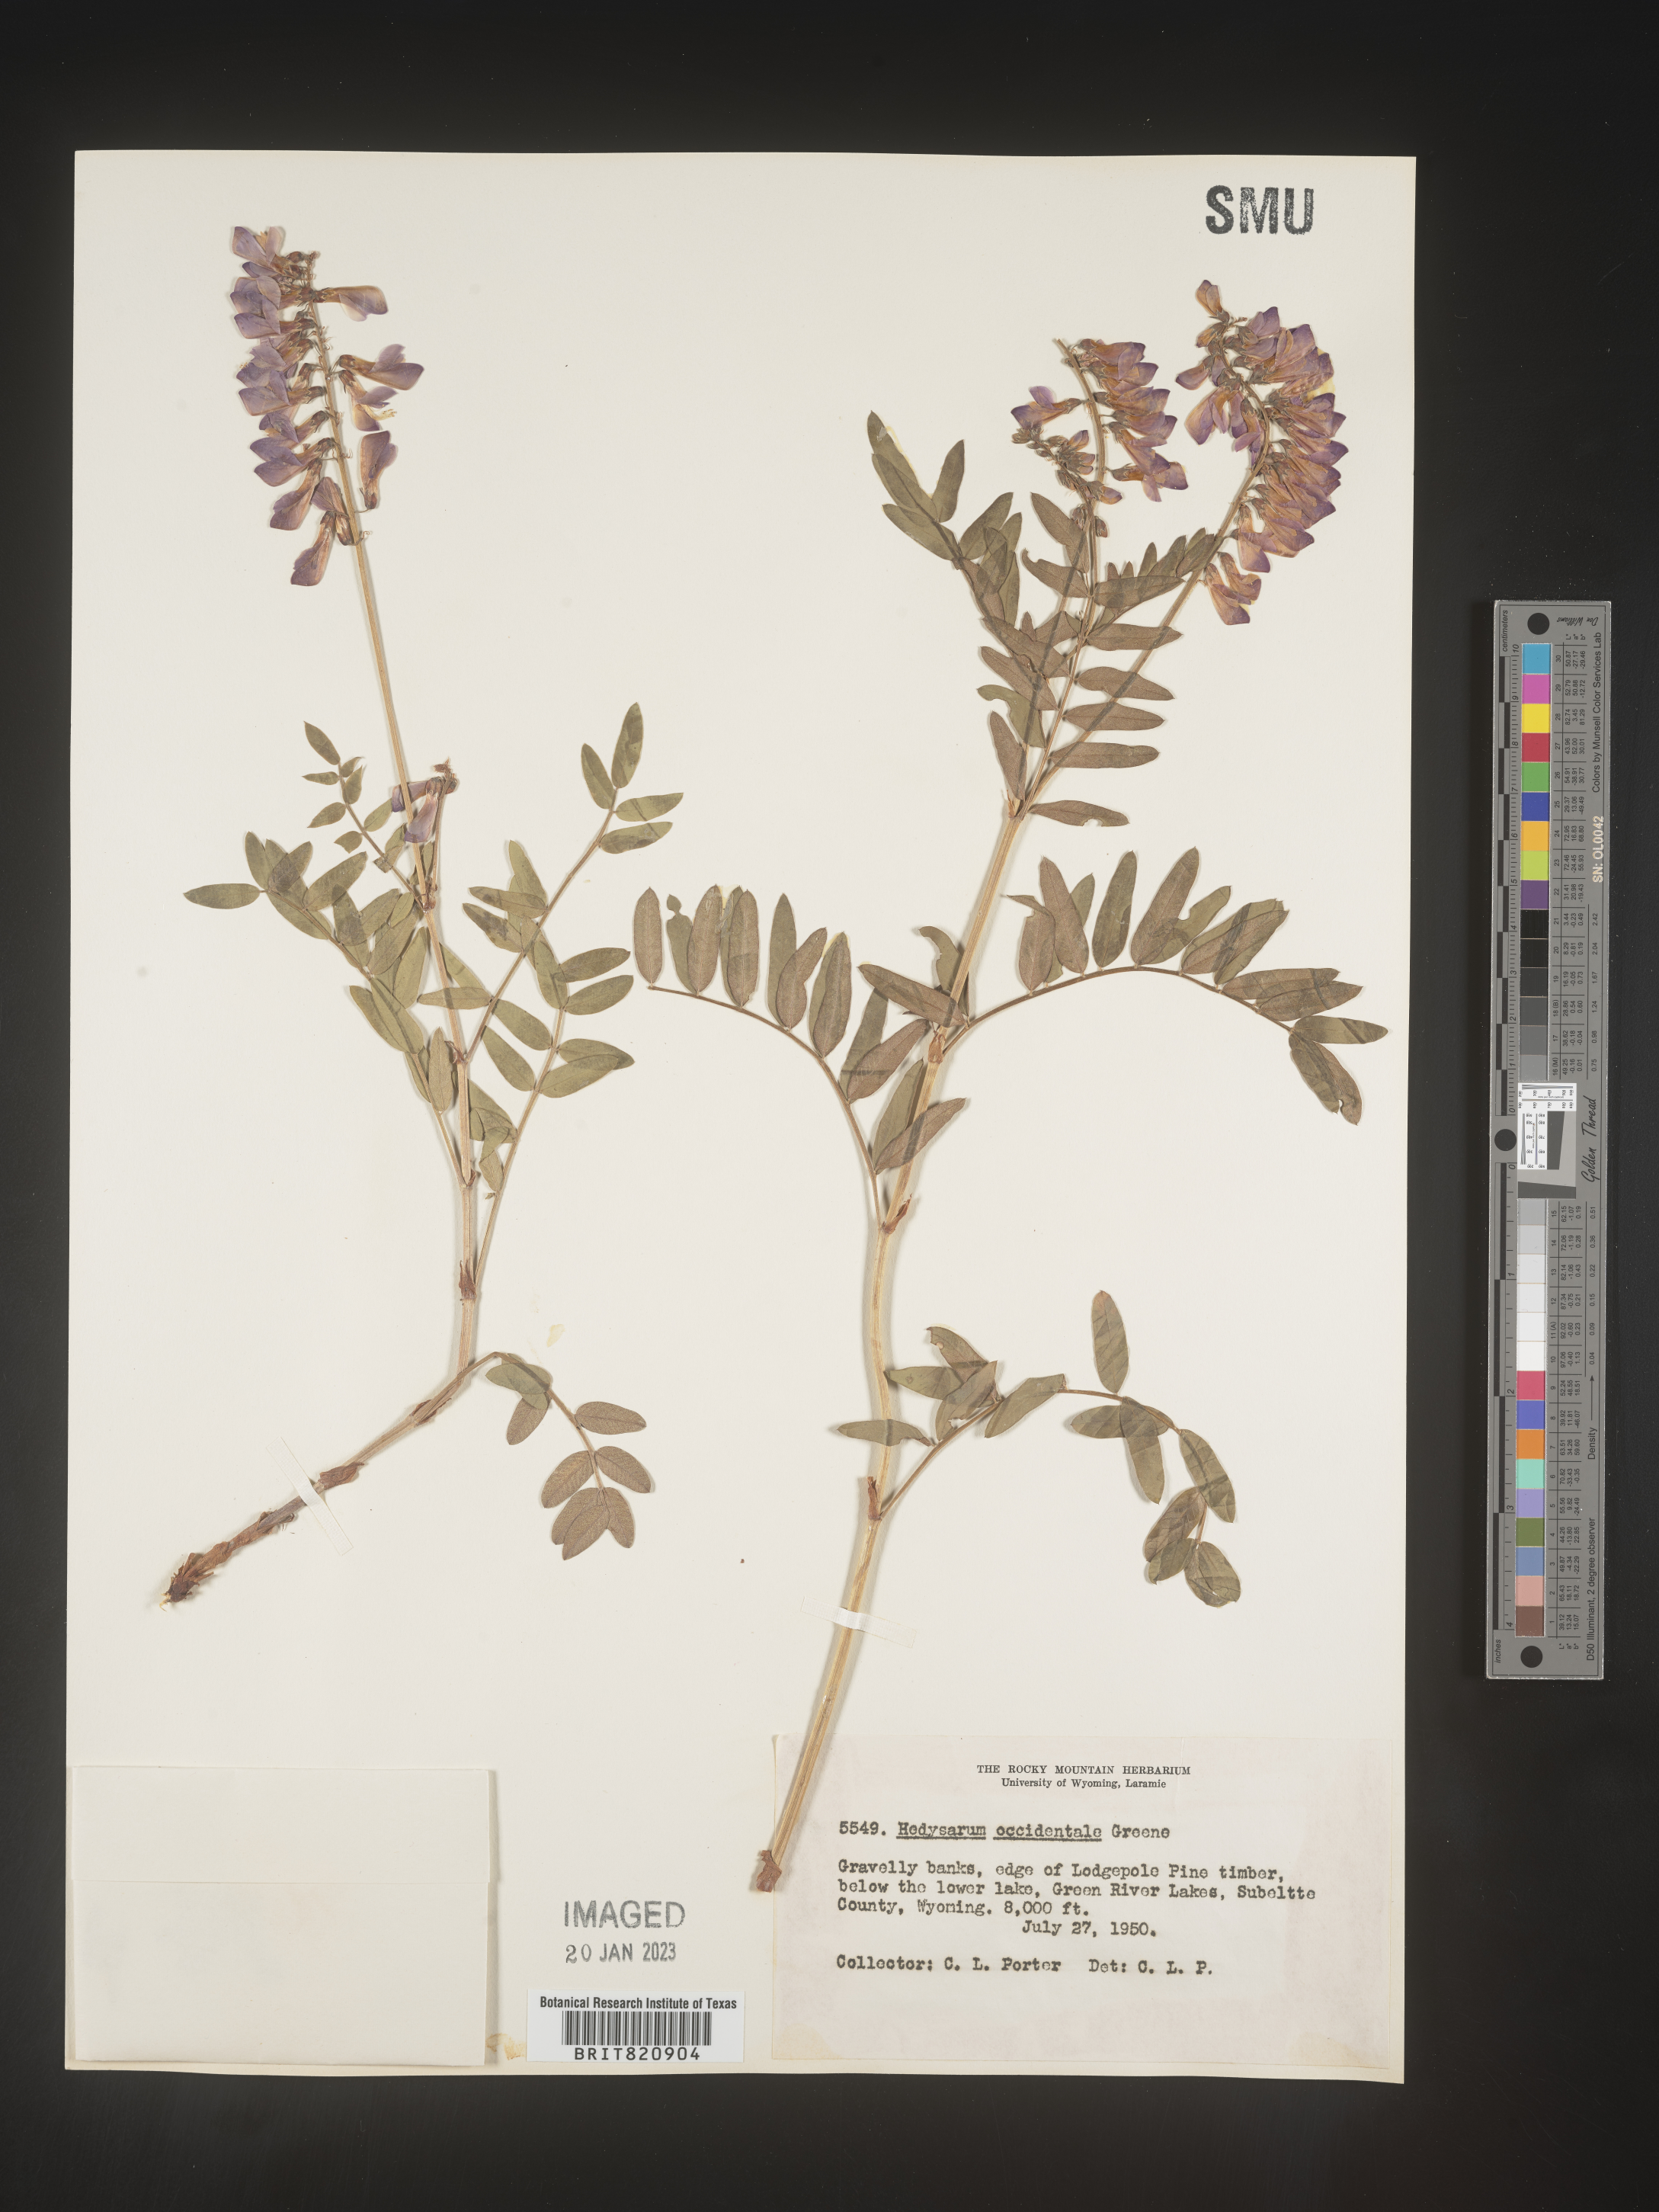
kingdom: Plantae
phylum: Tracheophyta
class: Magnoliopsida
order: Fabales
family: Fabaceae
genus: Hedysarum
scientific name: Hedysarum occidentale
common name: Western hedysarum
